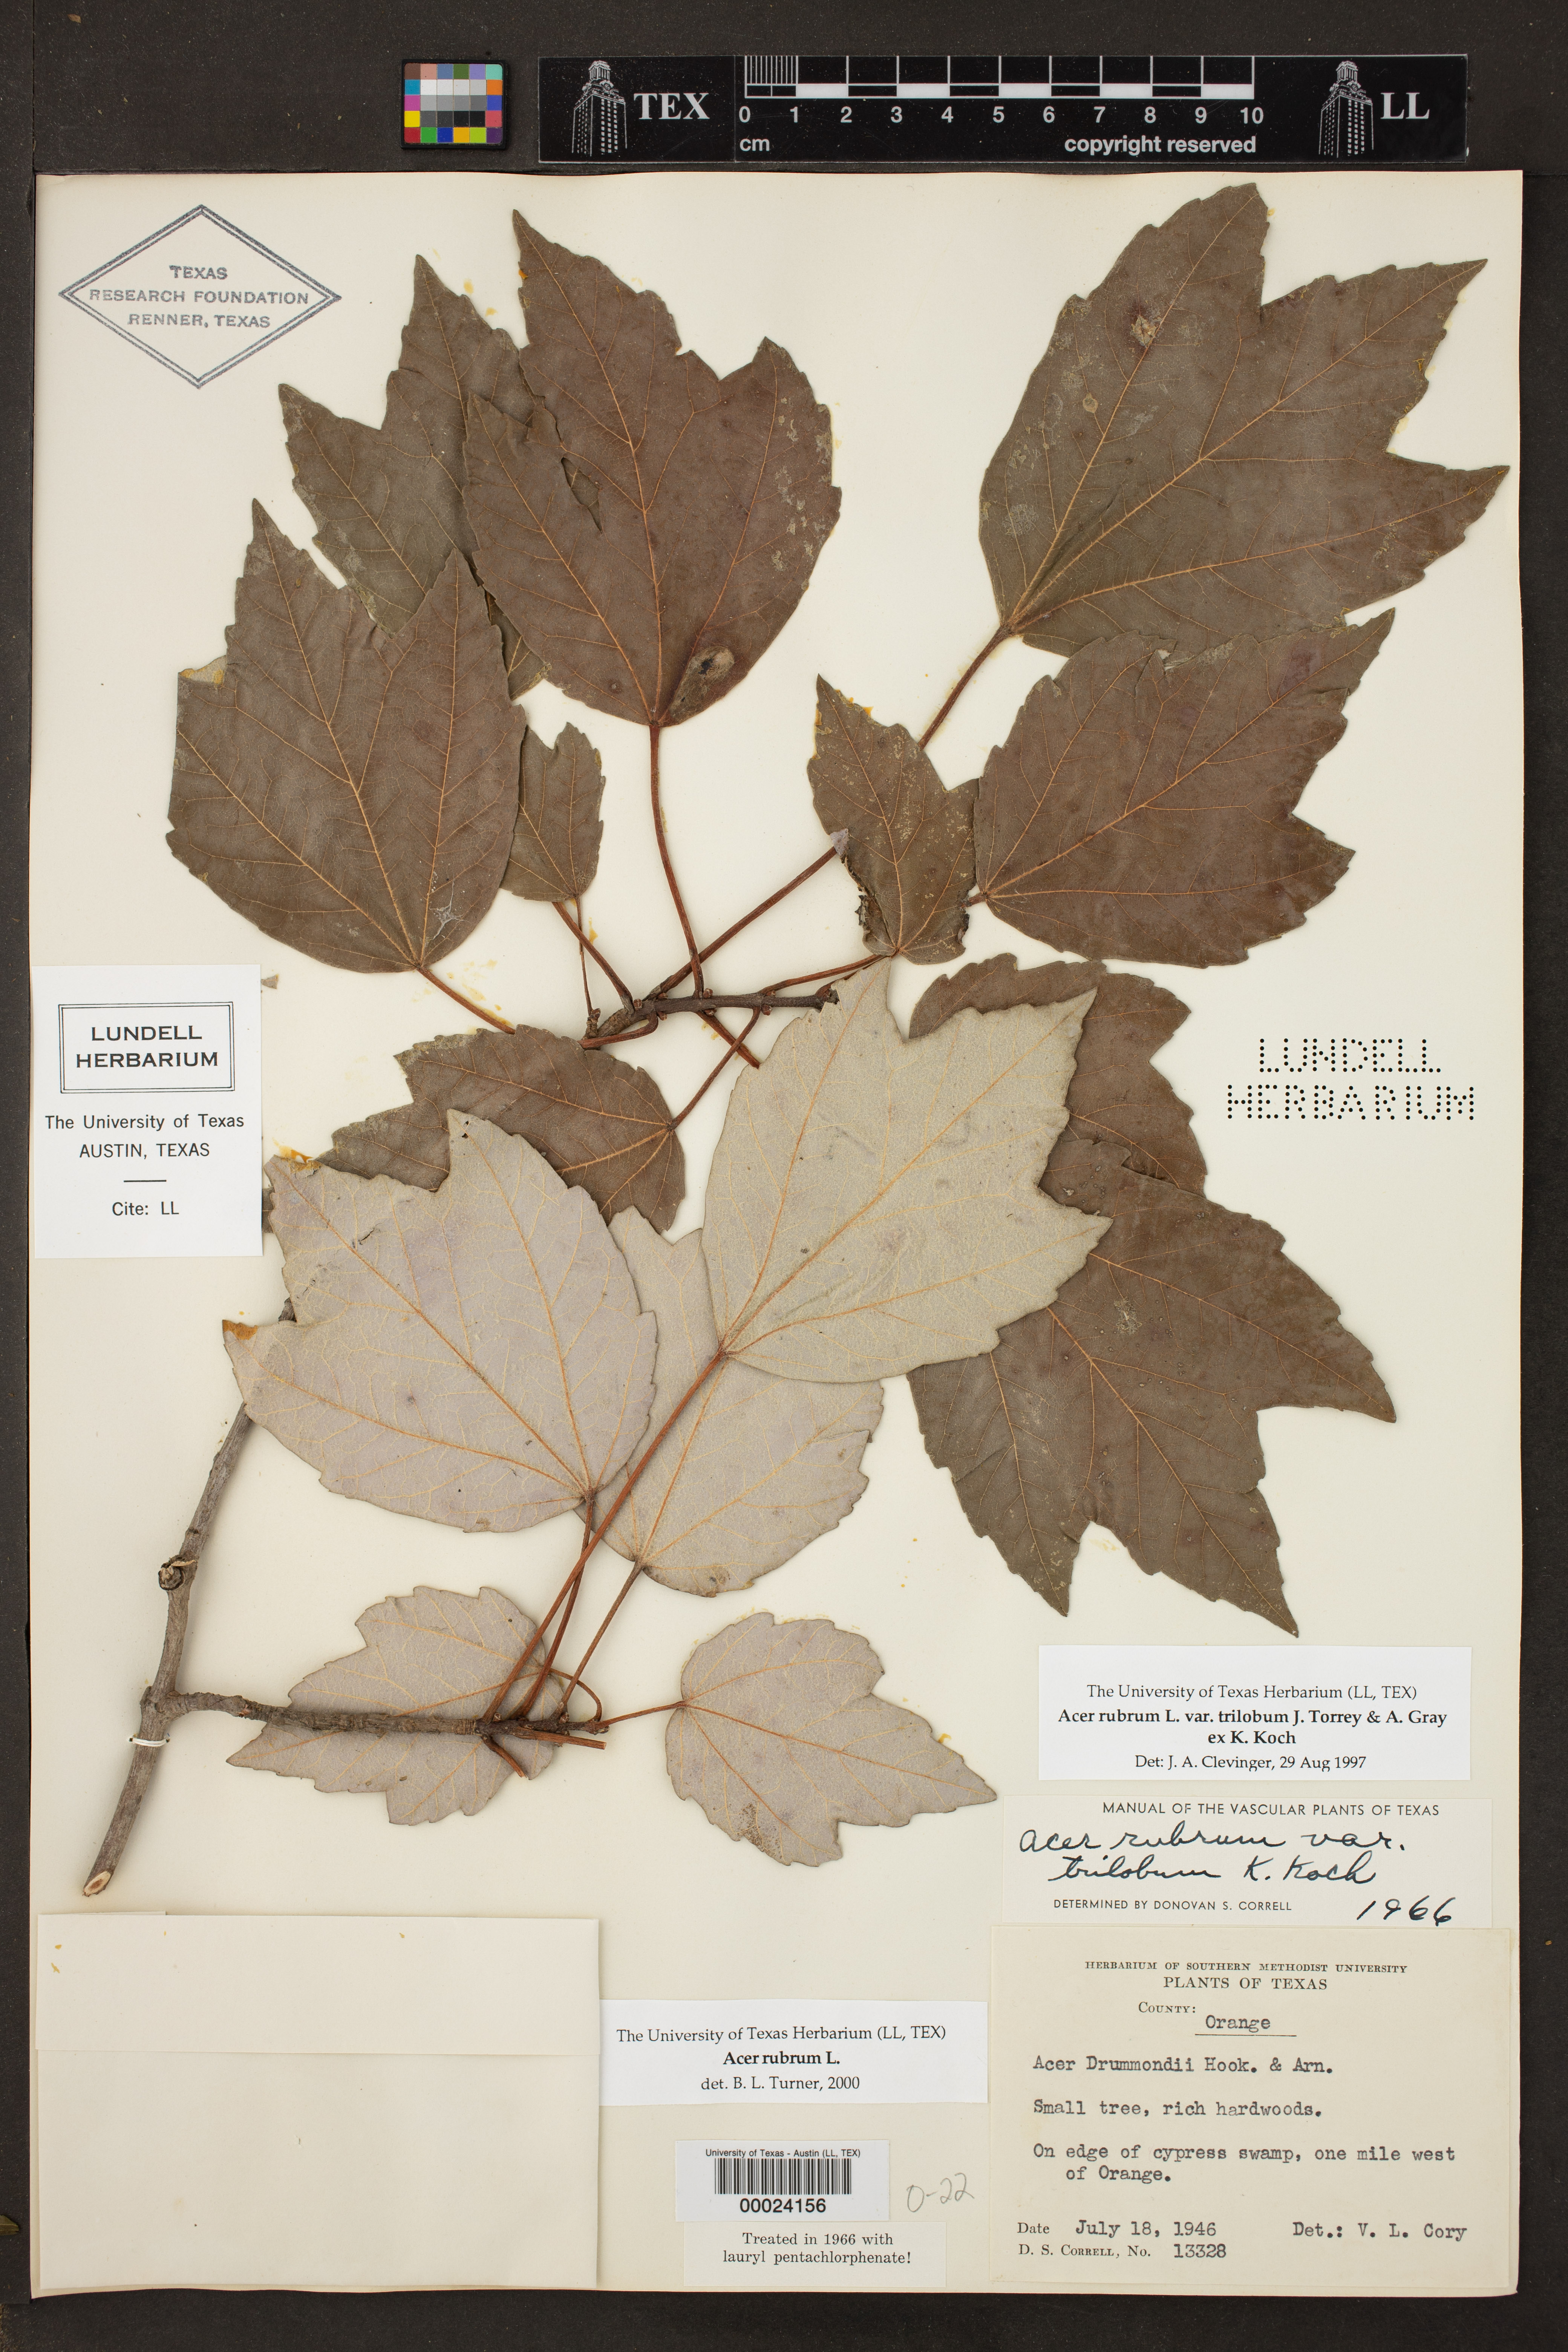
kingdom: Plantae
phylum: Tracheophyta
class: Magnoliopsida
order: Sapindales
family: Sapindaceae
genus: Acer
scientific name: Acer rubrum
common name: Red maple
